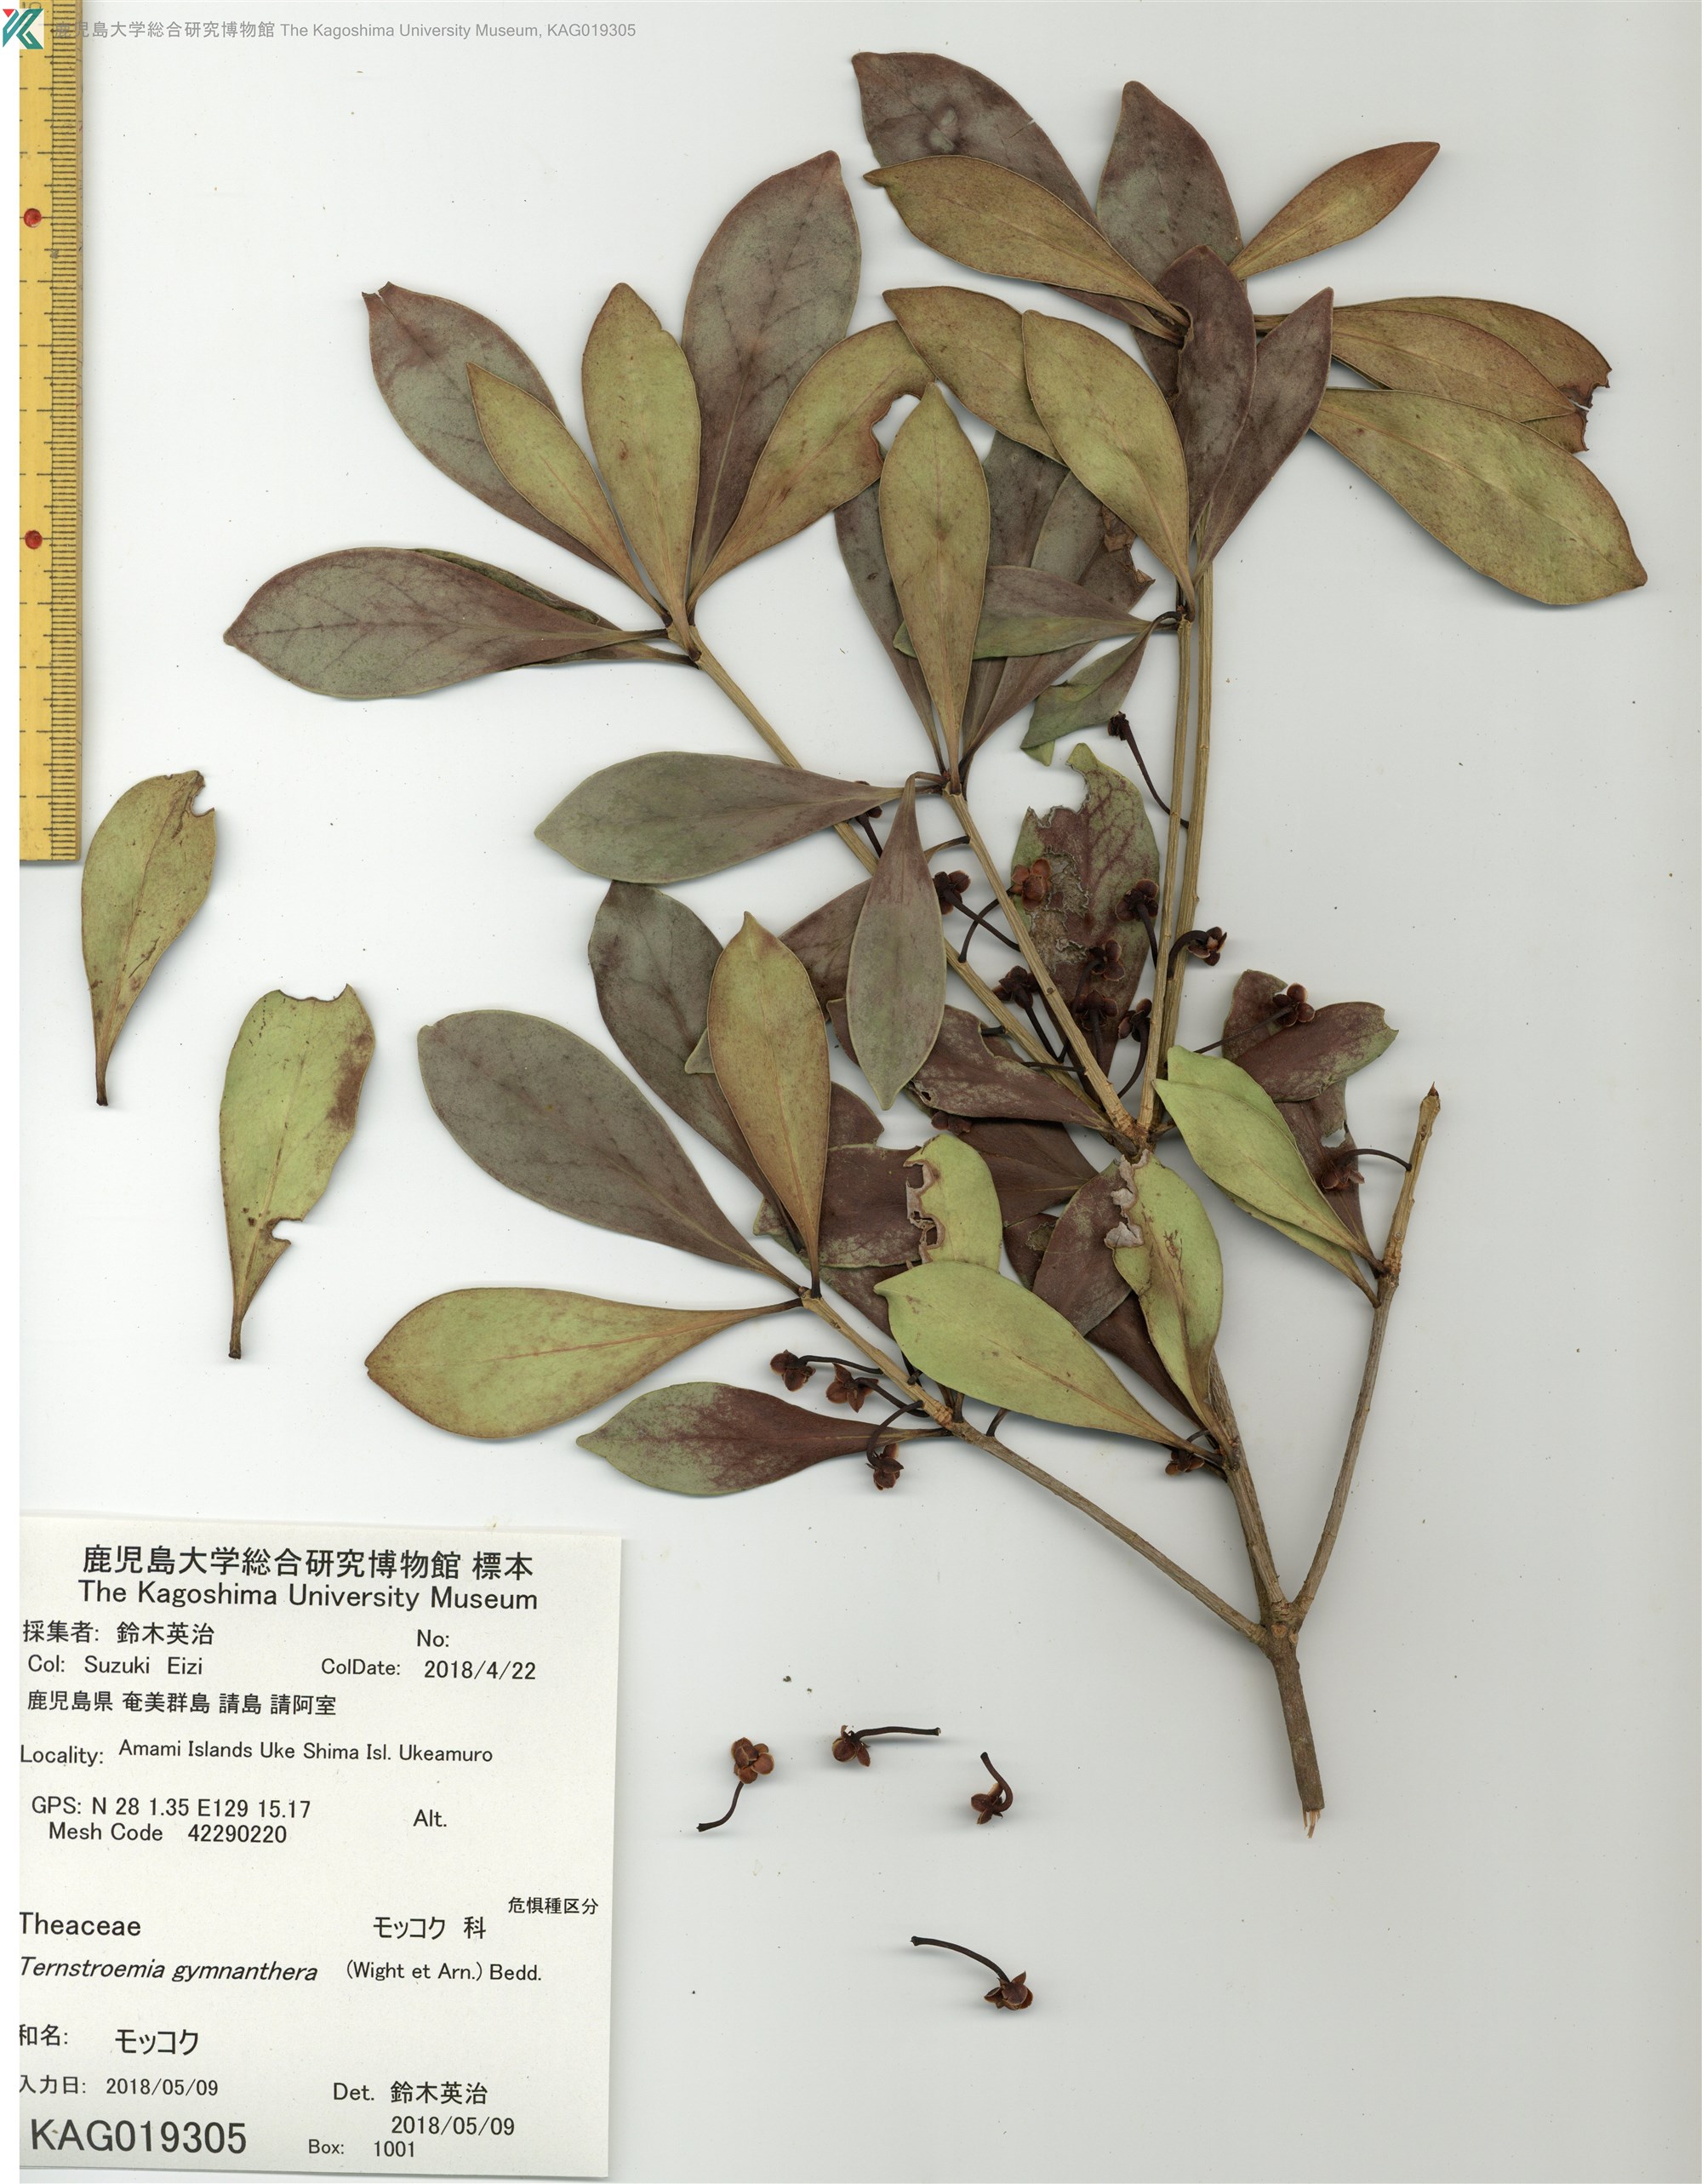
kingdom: Plantae
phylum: Tracheophyta
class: Magnoliopsida
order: Ericales
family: Pentaphylacaceae
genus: Ternstroemia
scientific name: Ternstroemia gymnanthera
